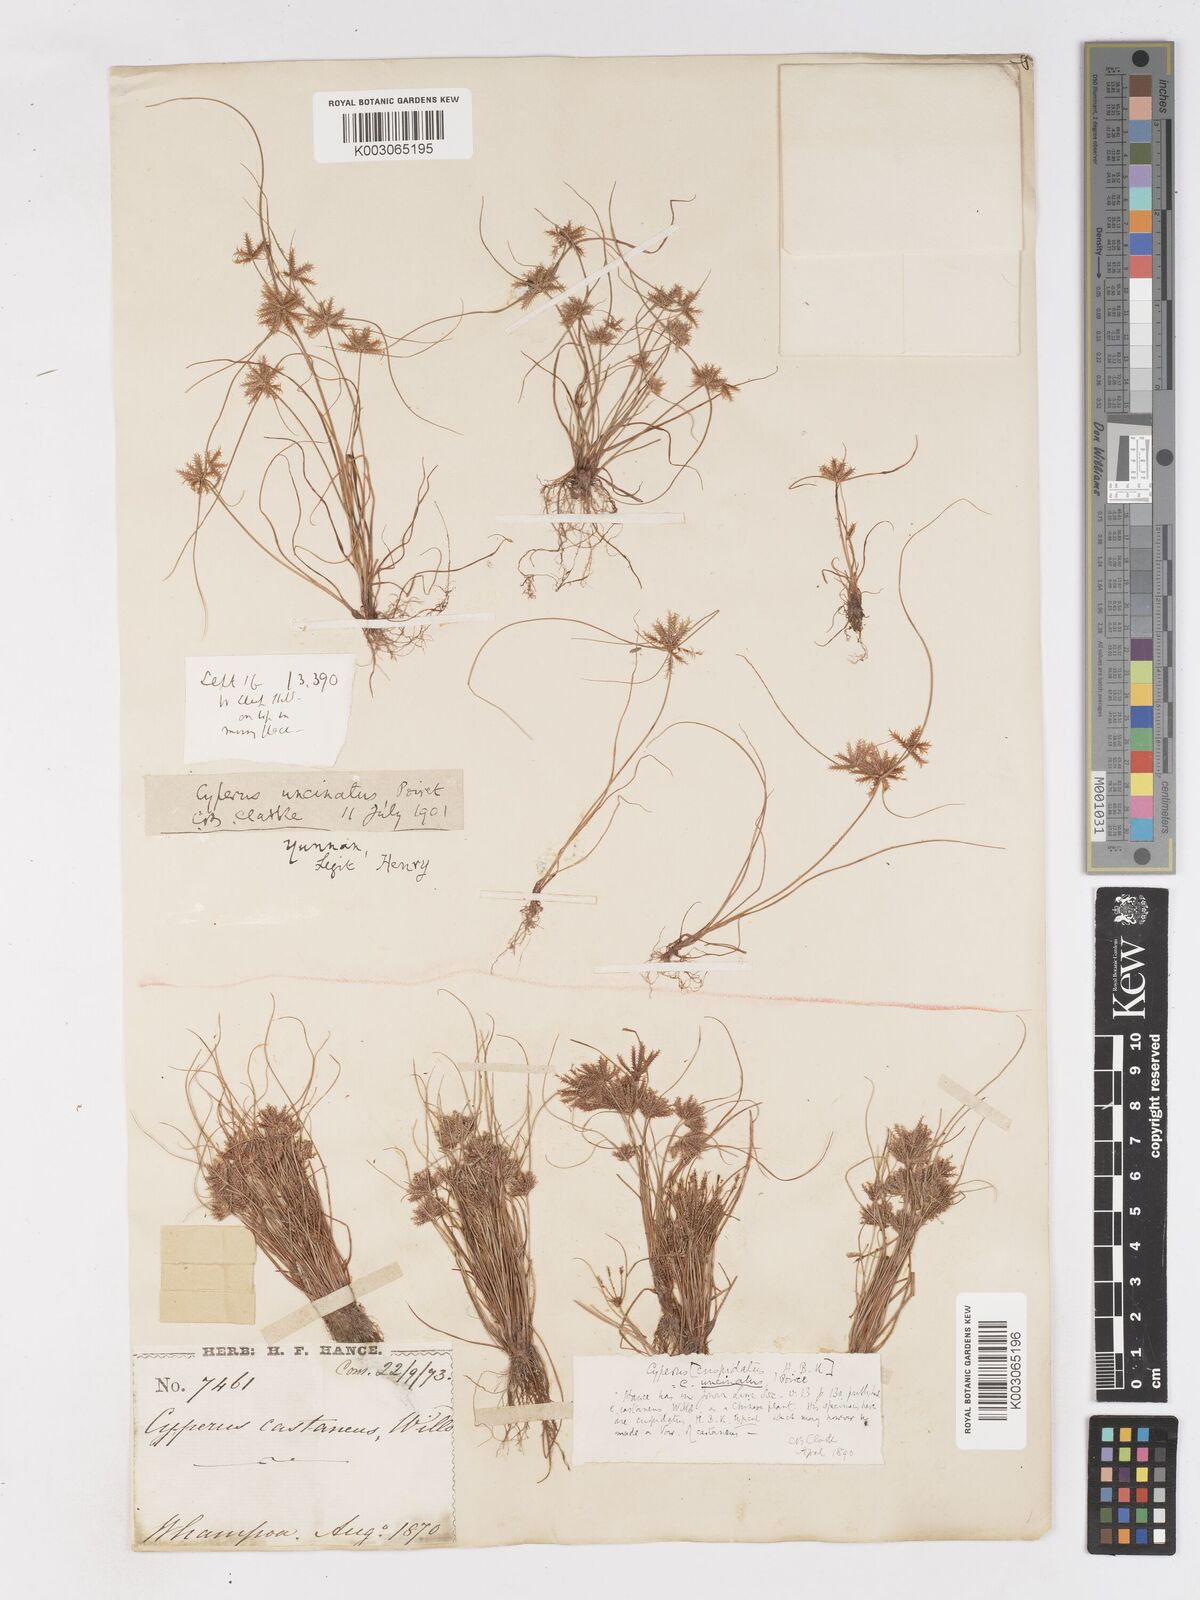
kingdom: Plantae
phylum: Tracheophyta
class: Liliopsida
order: Poales
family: Cyperaceae
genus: Cyperus
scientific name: Cyperus cuspidatus
